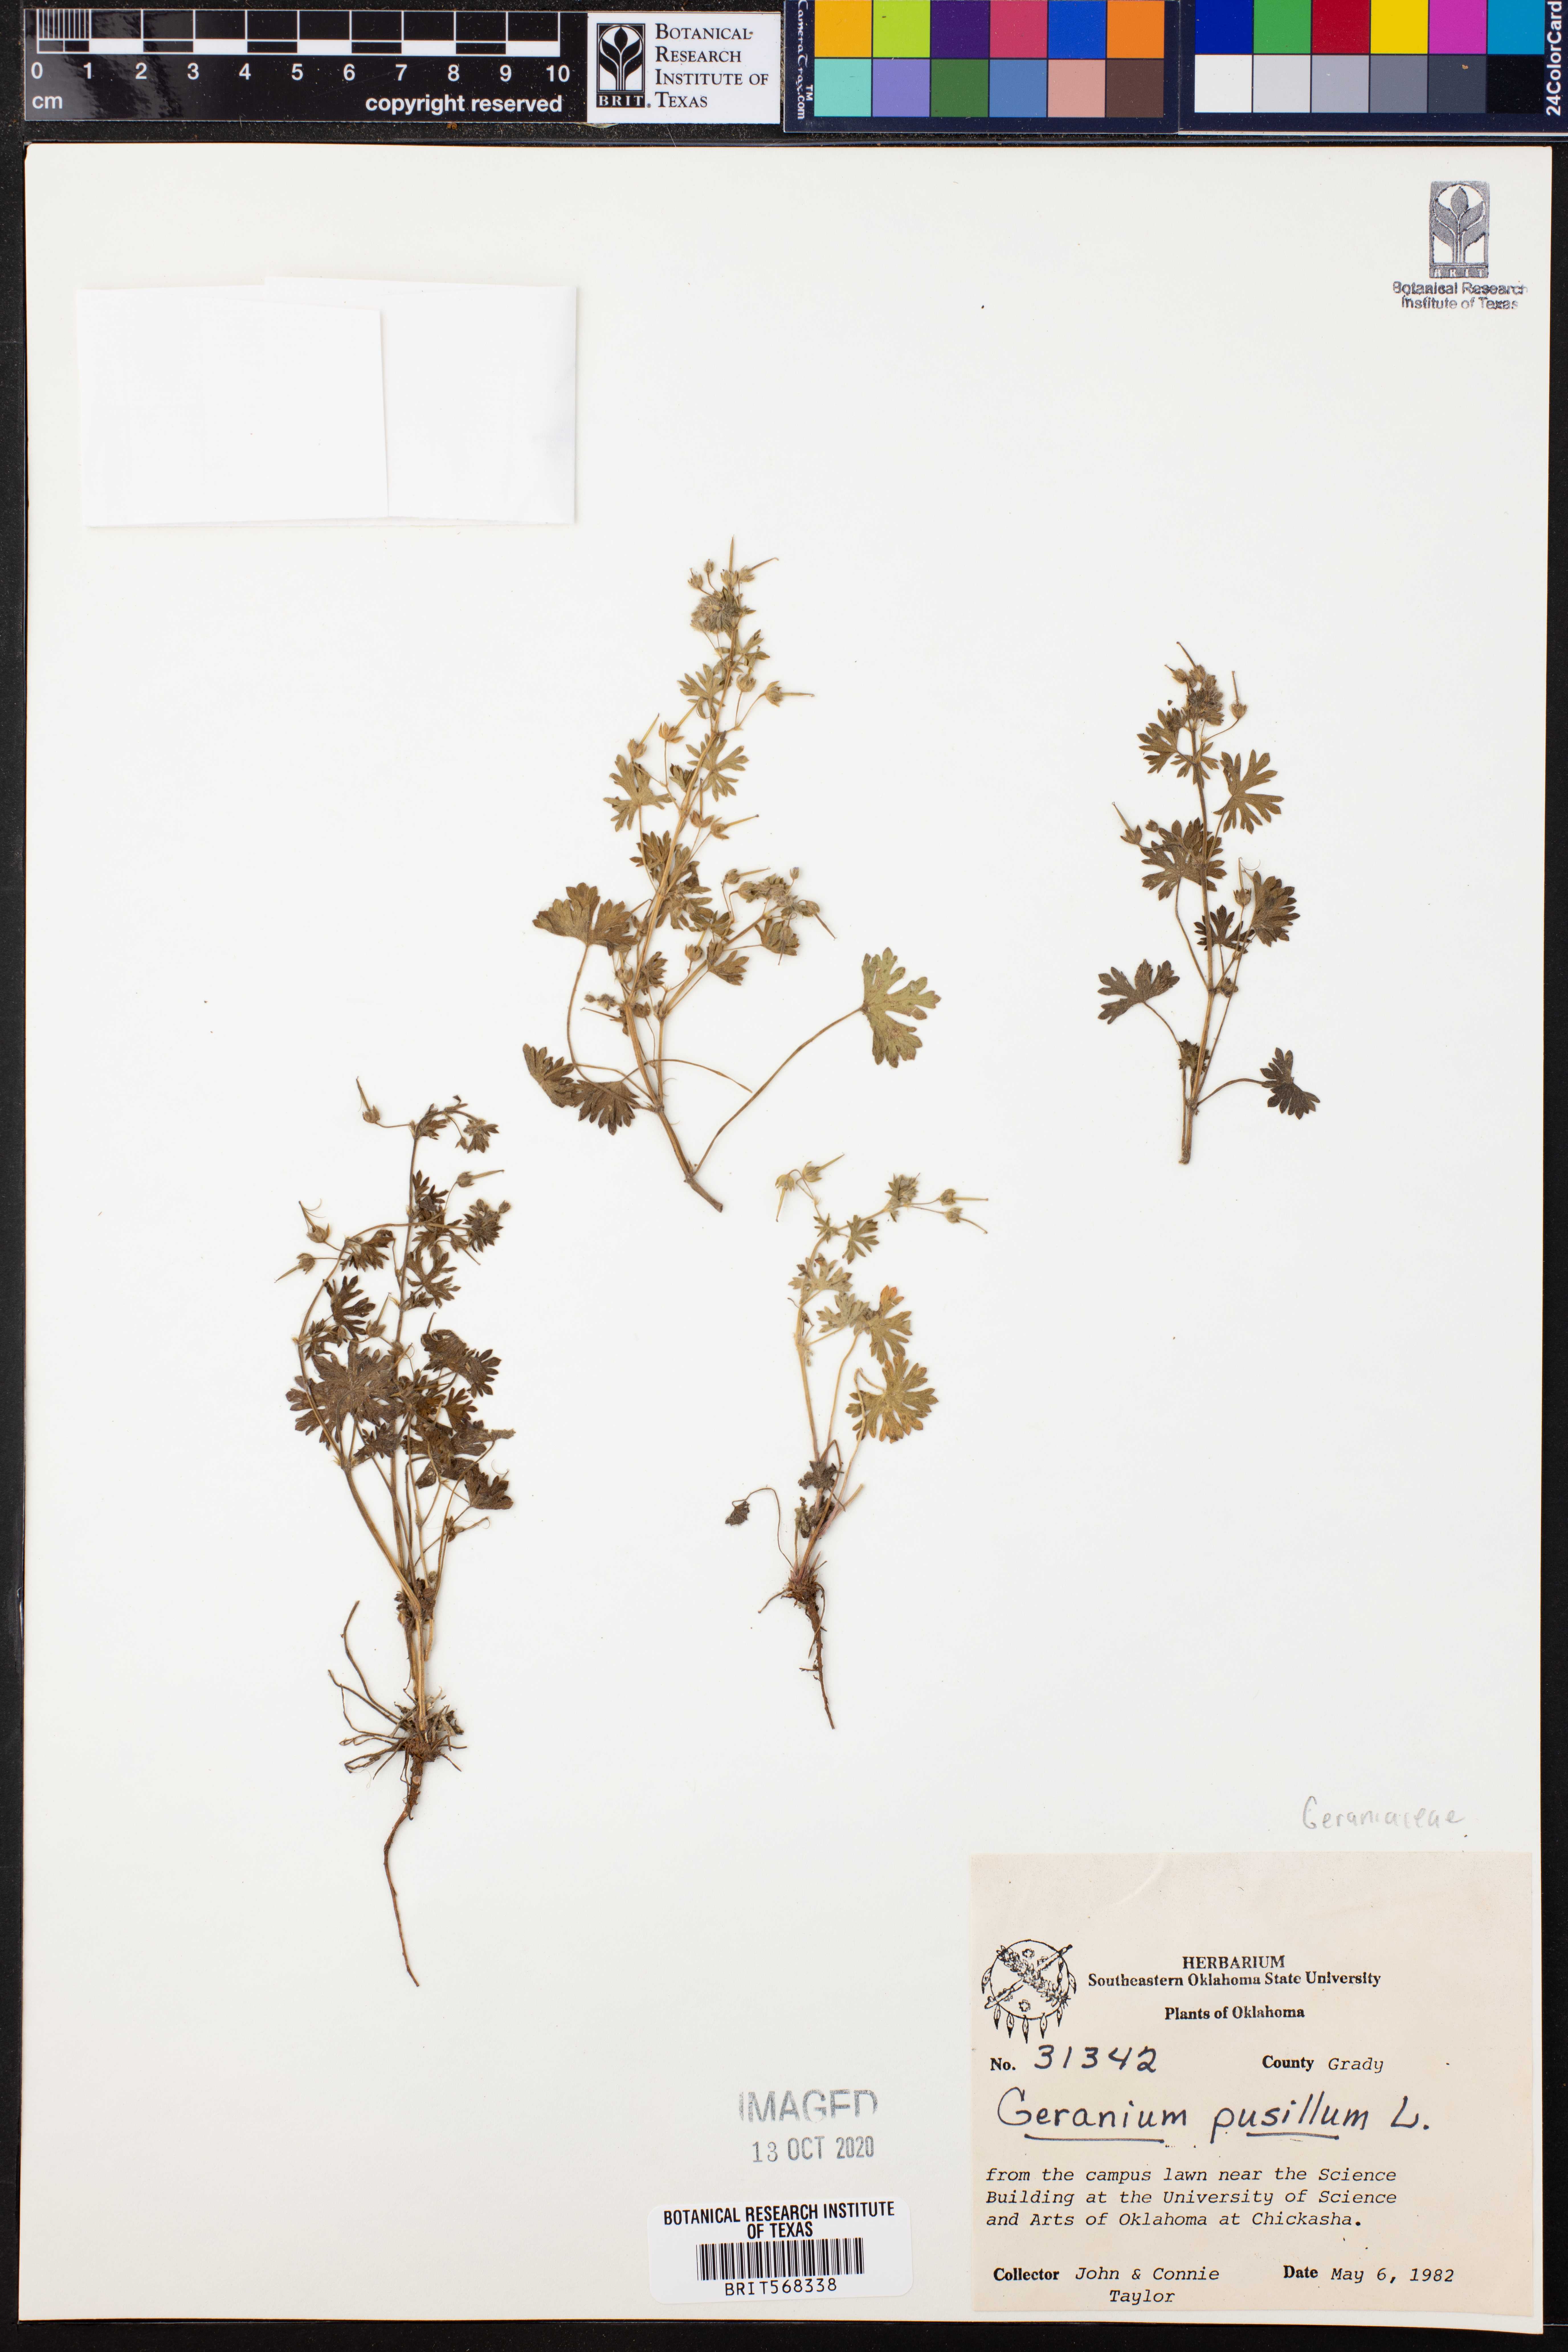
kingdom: Plantae
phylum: Tracheophyta
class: Magnoliopsida
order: Geraniales
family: Geraniaceae
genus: Geranium
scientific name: Geranium pusillum
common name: Small geranium
